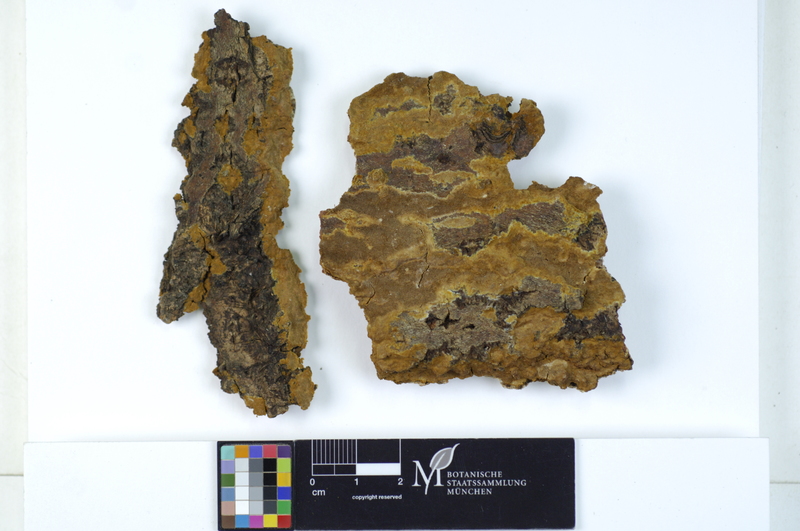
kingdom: Fungi
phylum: Basidiomycota
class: Agaricomycetes
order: Hymenochaetales
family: Hymenochaetaceae
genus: Phellinopsis
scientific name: Phellinopsis conchata
